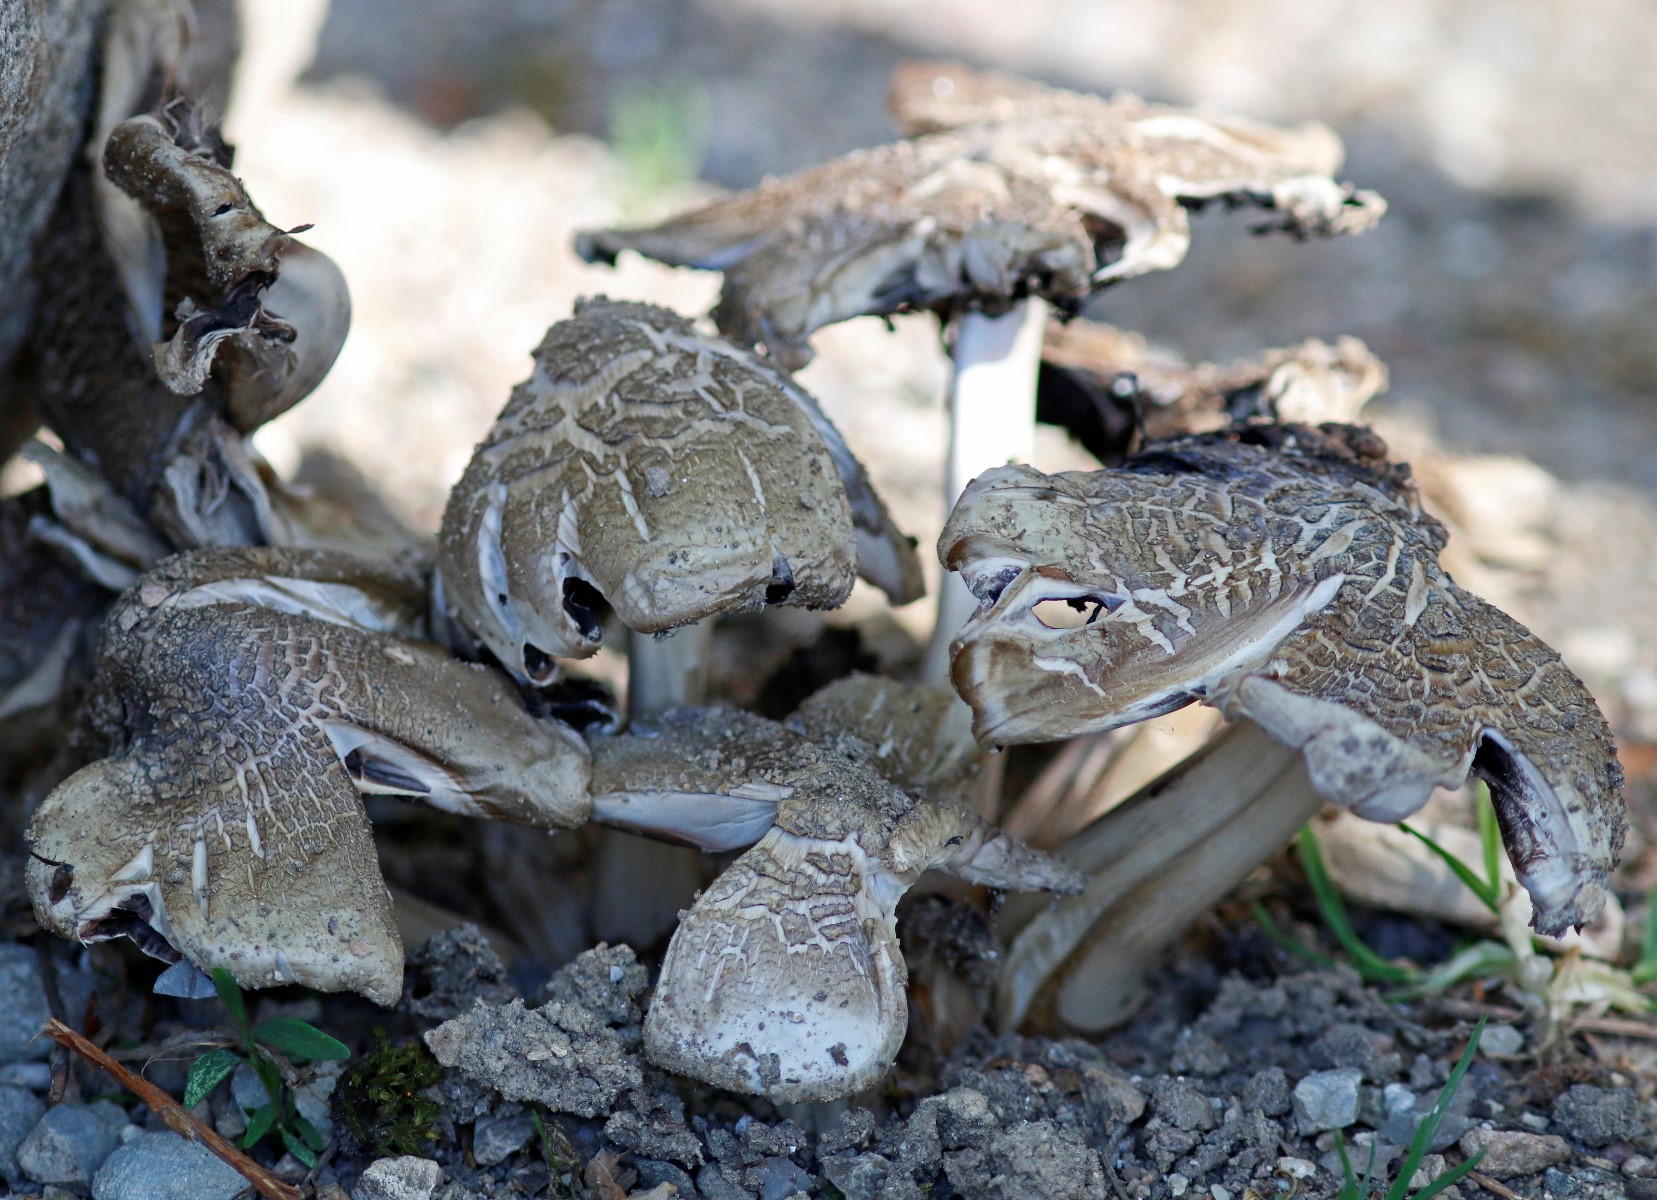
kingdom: Fungi
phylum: Basidiomycota
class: Agaricomycetes
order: Agaricales
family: Psathyrellaceae
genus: Coprinopsis
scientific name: Coprinopsis
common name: blækhat
